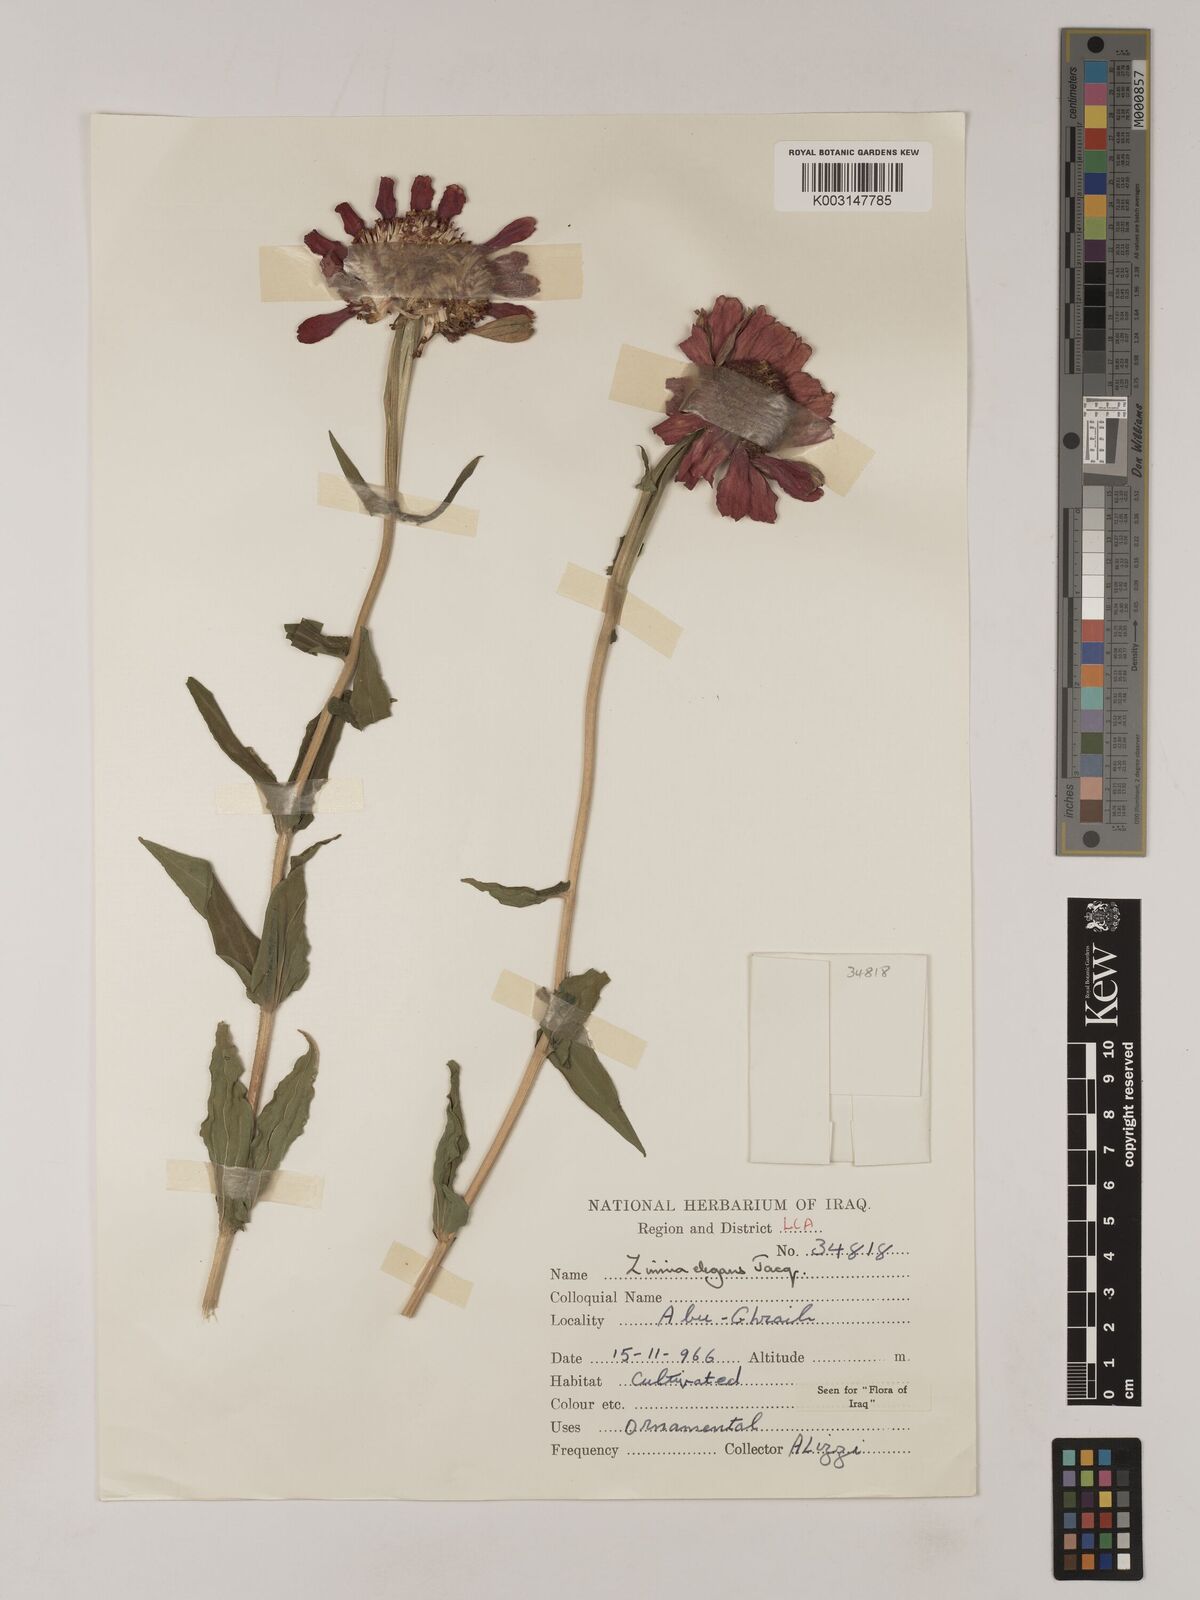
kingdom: Plantae
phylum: Tracheophyta
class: Magnoliopsida
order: Asterales
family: Asteraceae
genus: Zinnia
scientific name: Zinnia elegans
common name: Youth-and-age
